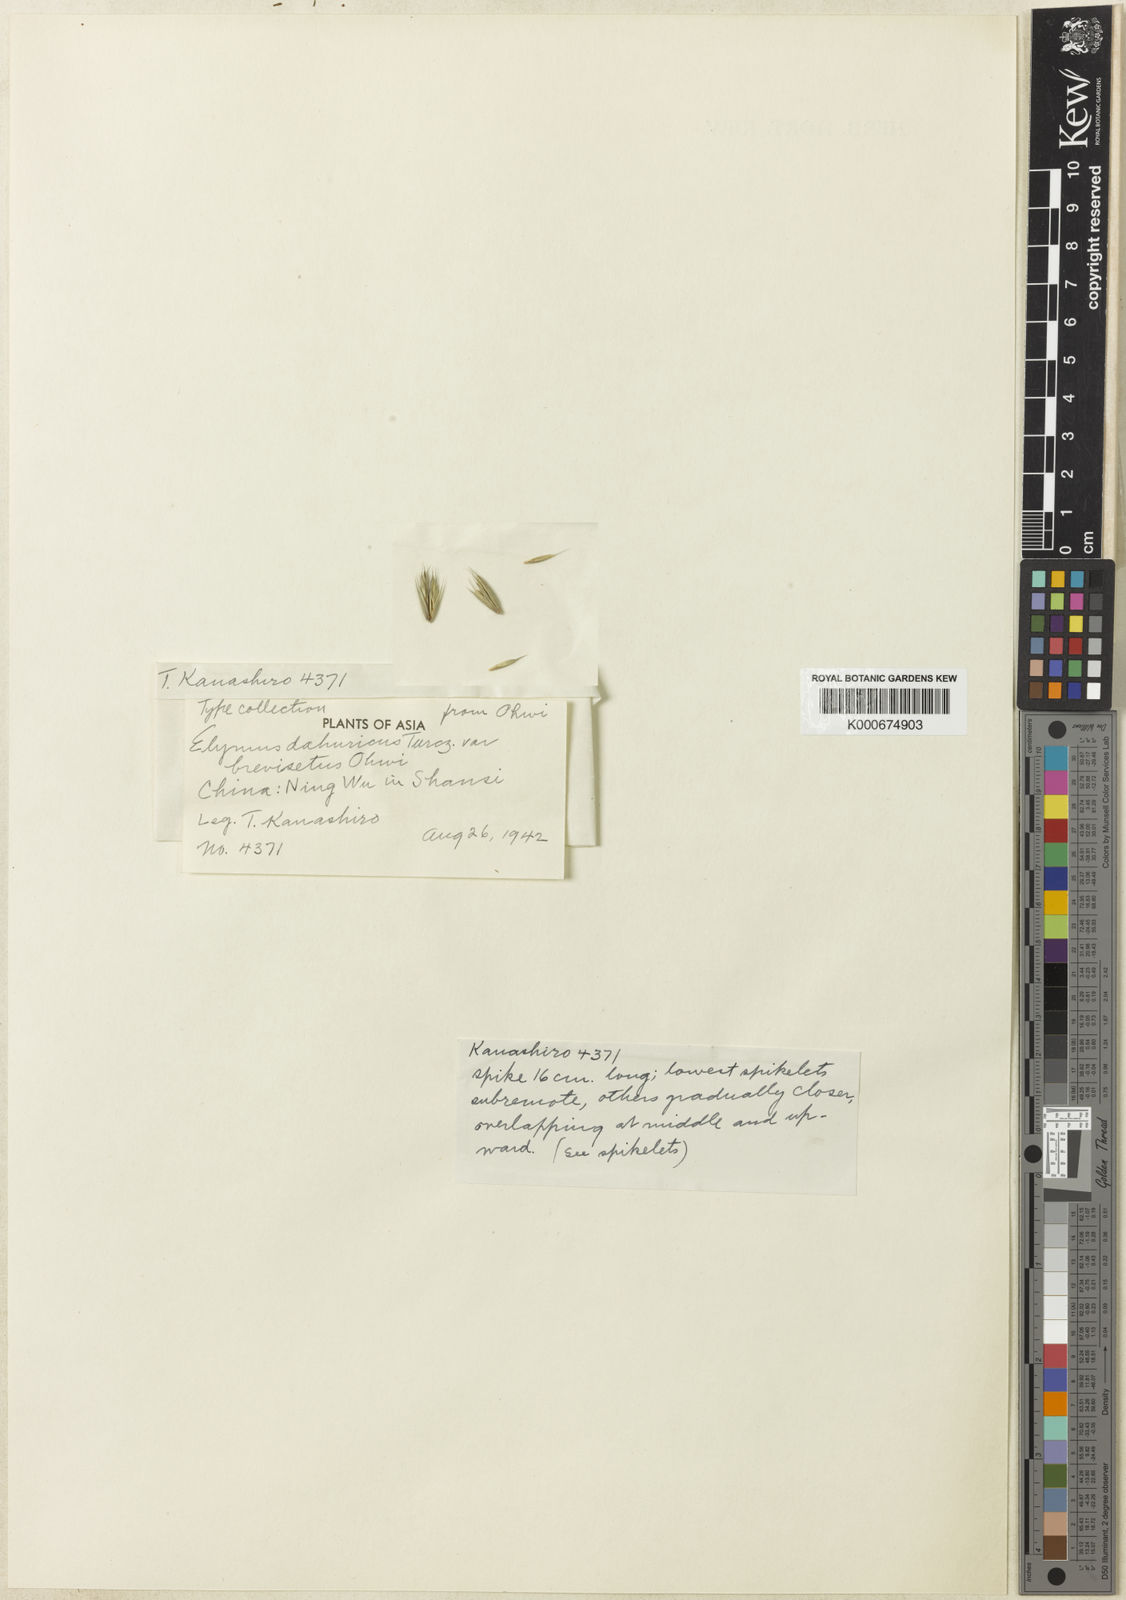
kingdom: Plantae
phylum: Tracheophyta
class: Liliopsida
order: Poales
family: Poaceae
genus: Elymus
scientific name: Elymus
